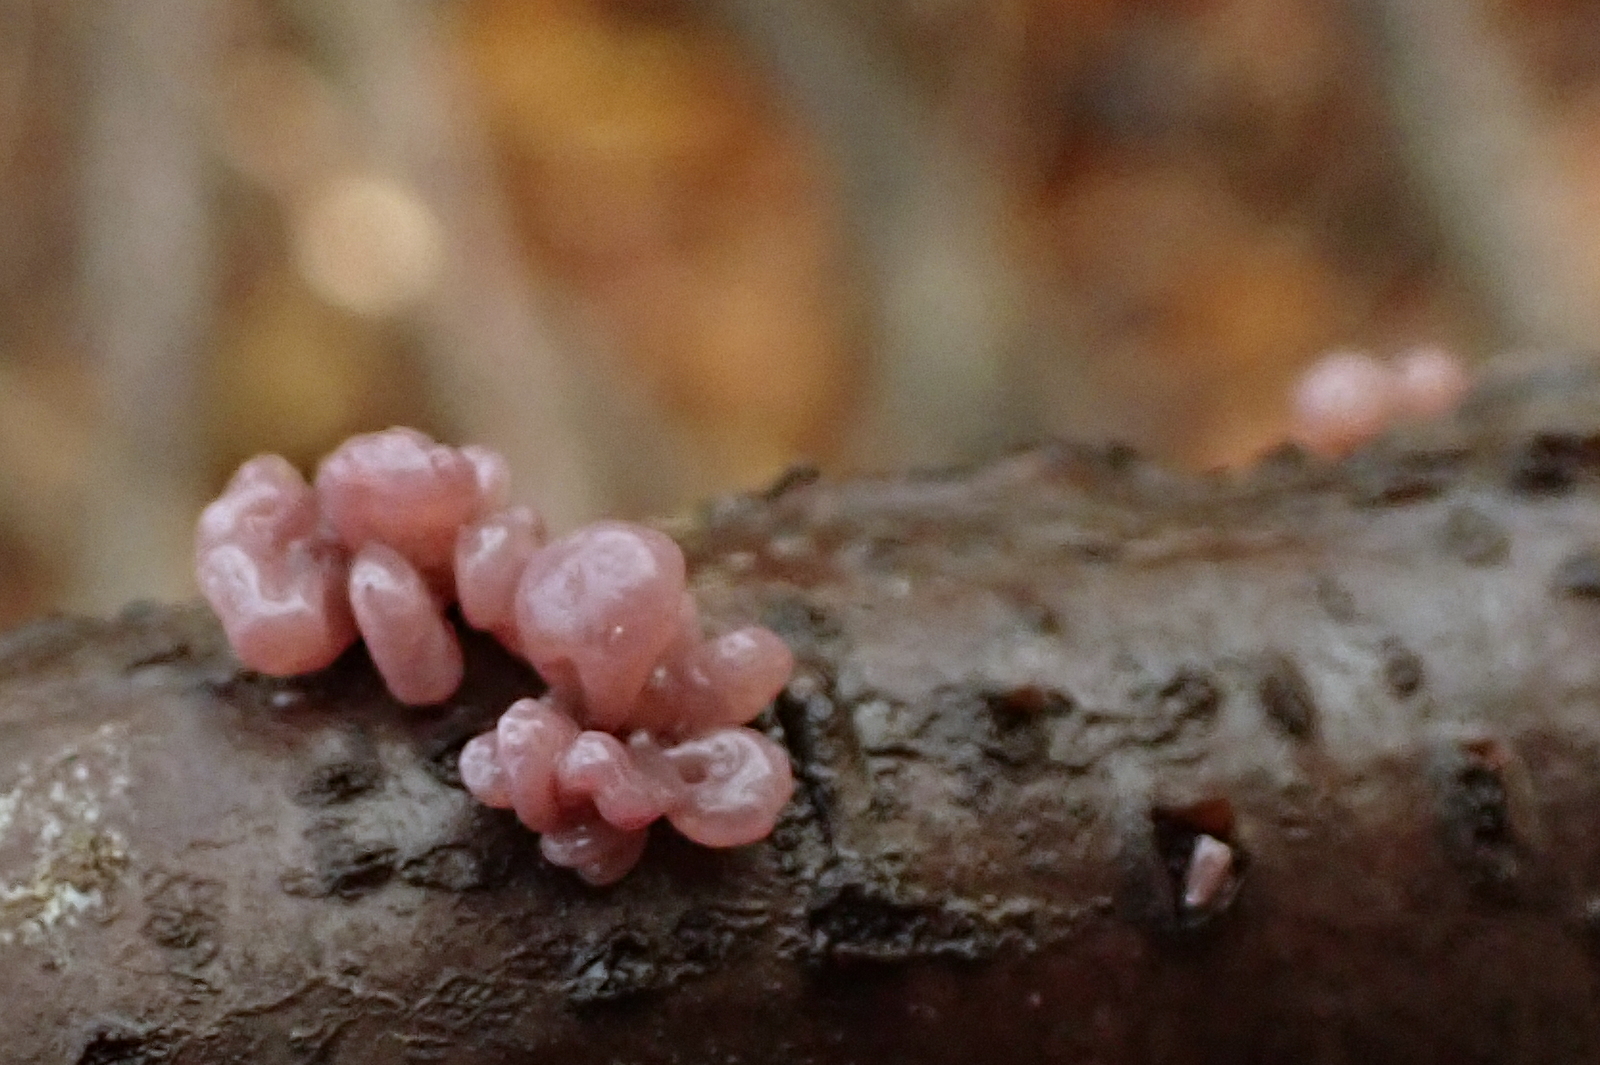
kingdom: Fungi
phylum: Ascomycota
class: Leotiomycetes
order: Helotiales
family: Gelatinodiscaceae
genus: Ascocoryne
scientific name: Ascocoryne sarcoides
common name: rødlilla sejskive
